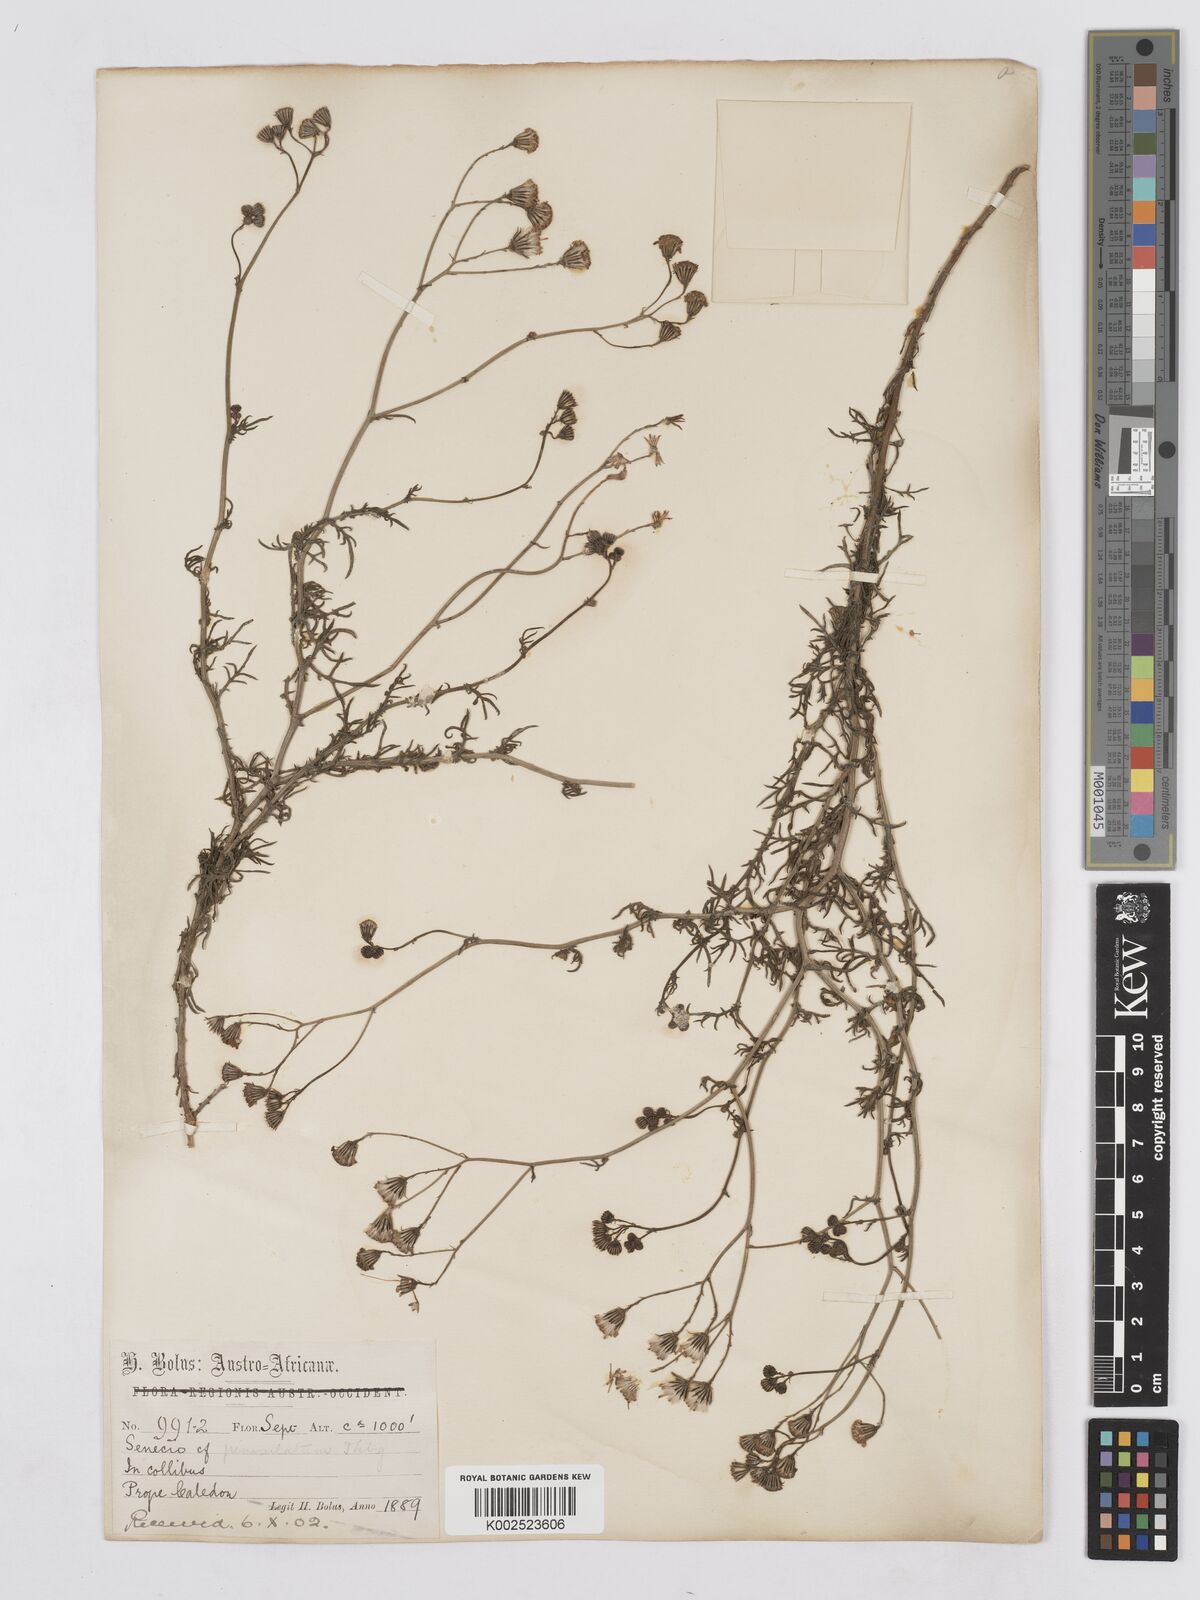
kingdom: Plantae
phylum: Tracheophyta
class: Magnoliopsida
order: Asterales
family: Asteraceae
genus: Senecio
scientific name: Senecio
